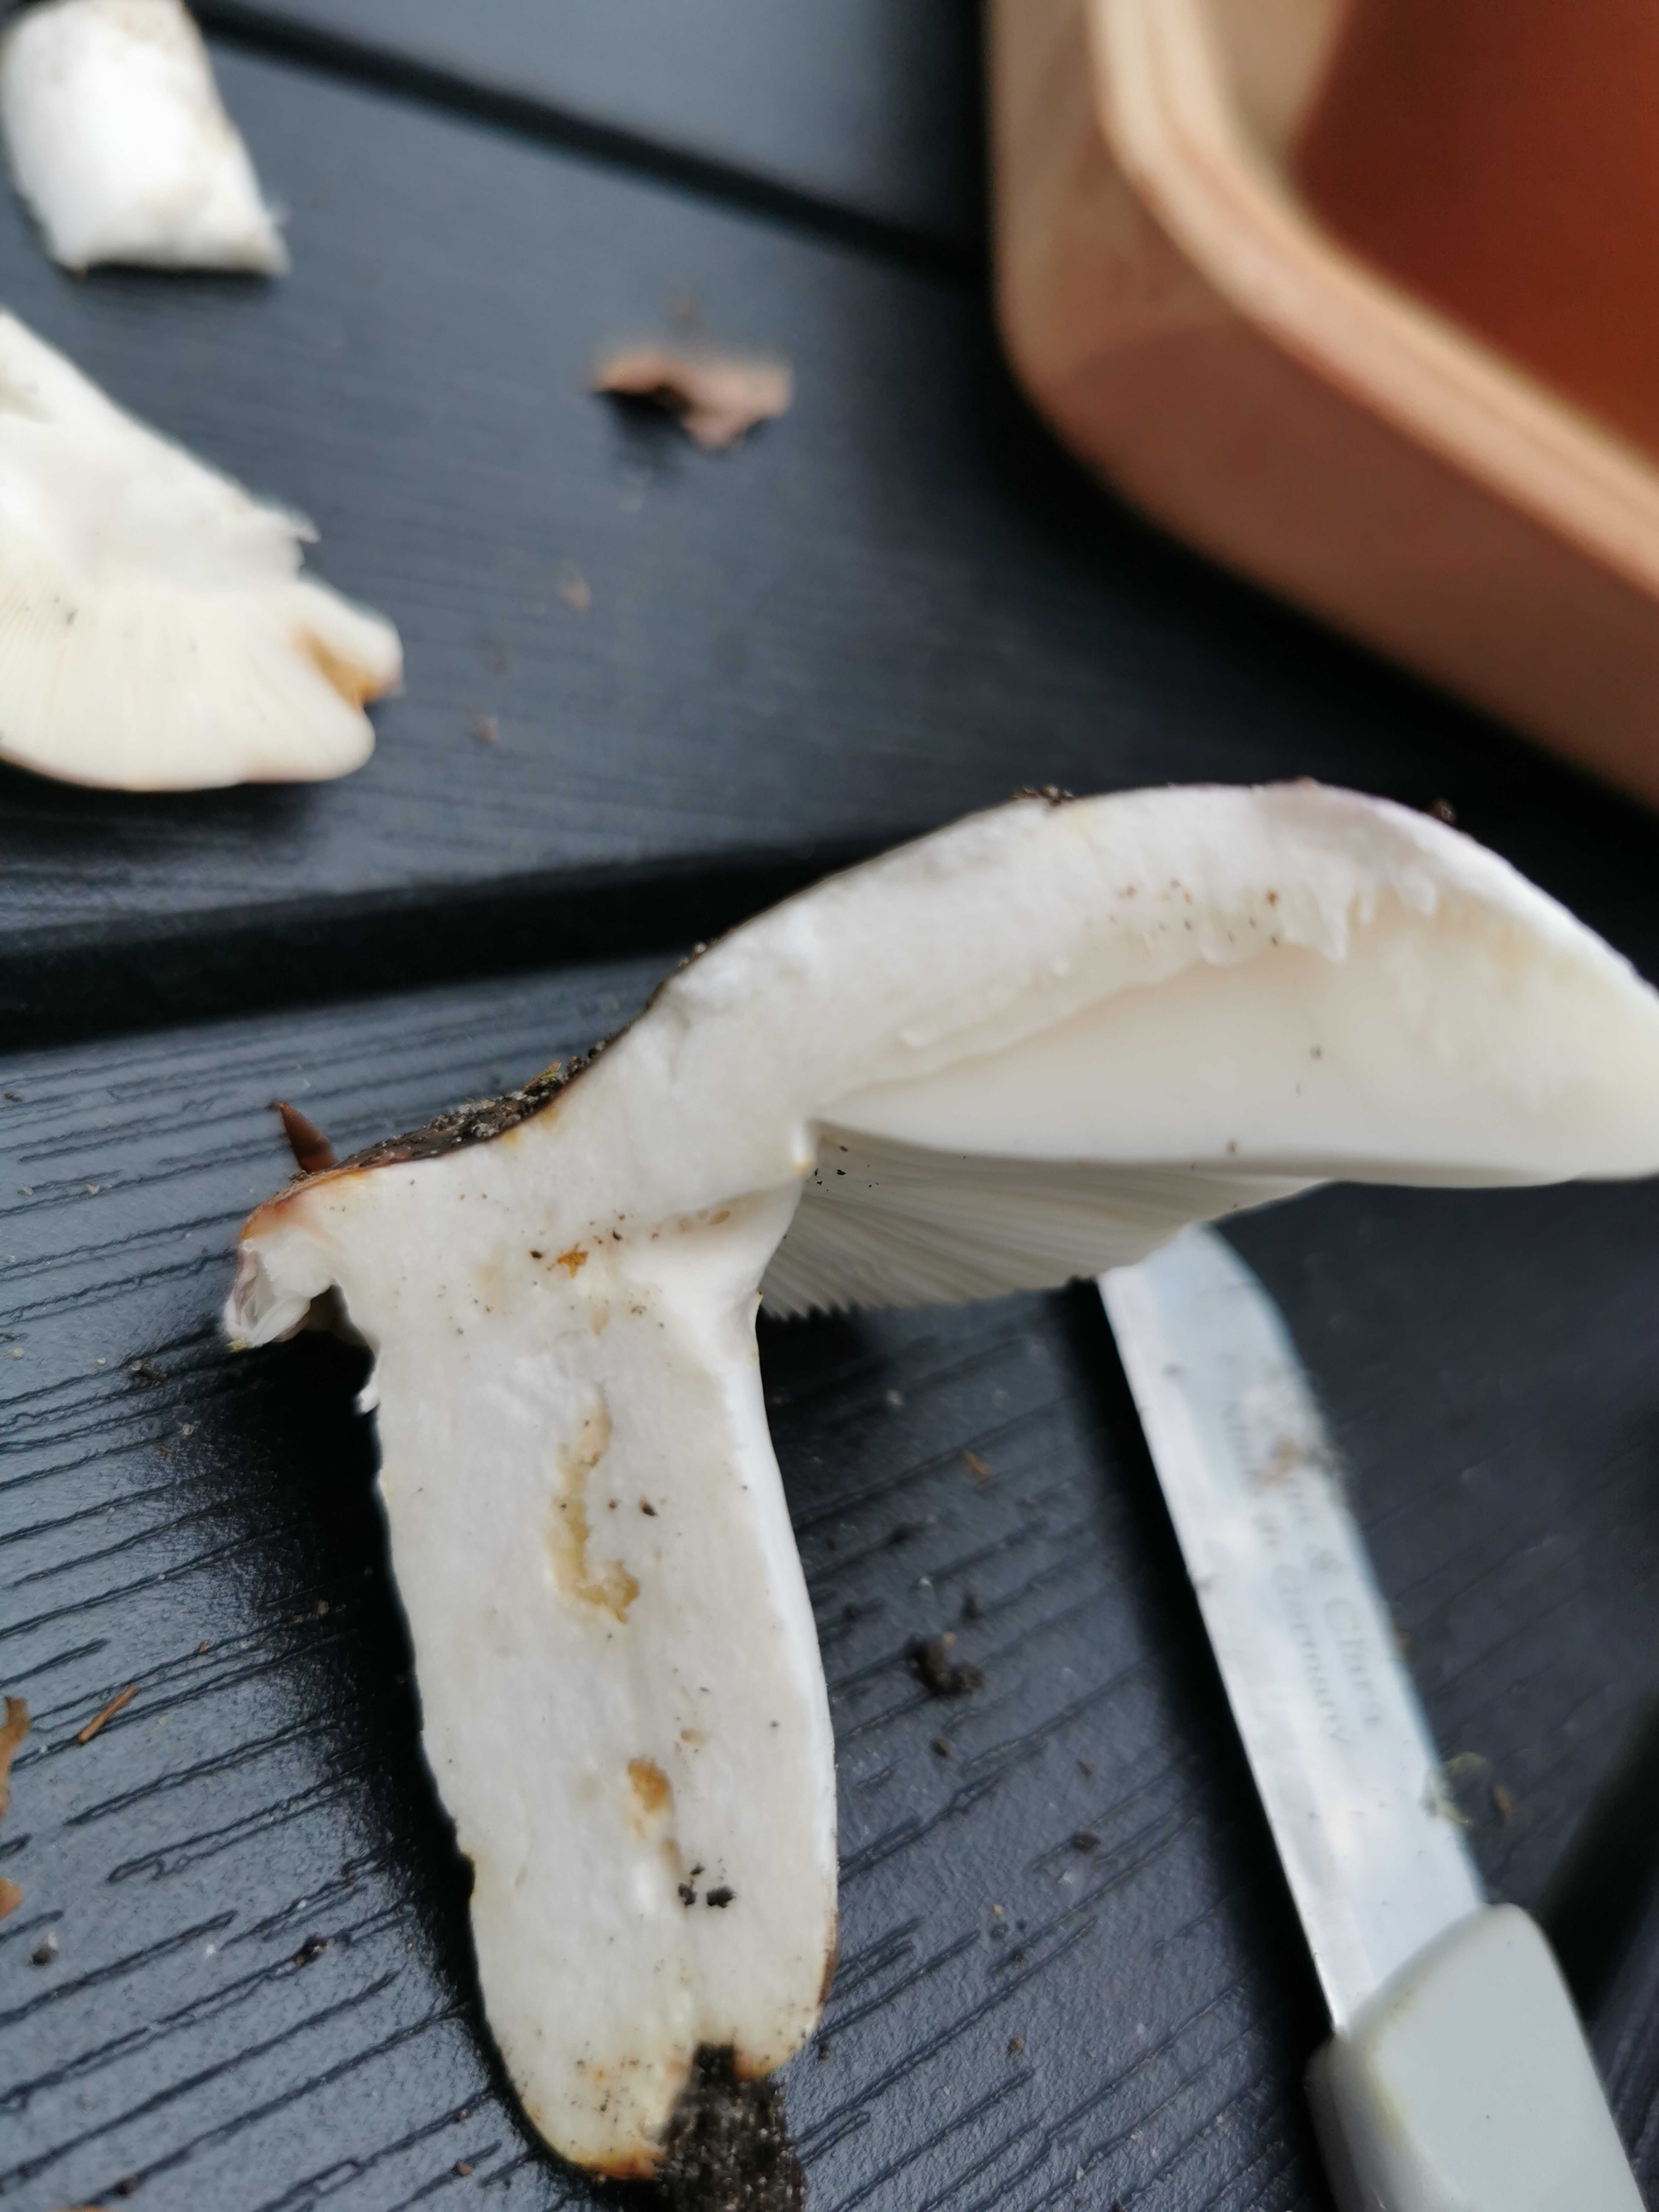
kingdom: Fungi
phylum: Basidiomycota
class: Agaricomycetes
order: Russulales
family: Russulaceae
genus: Russula
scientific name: Russula
